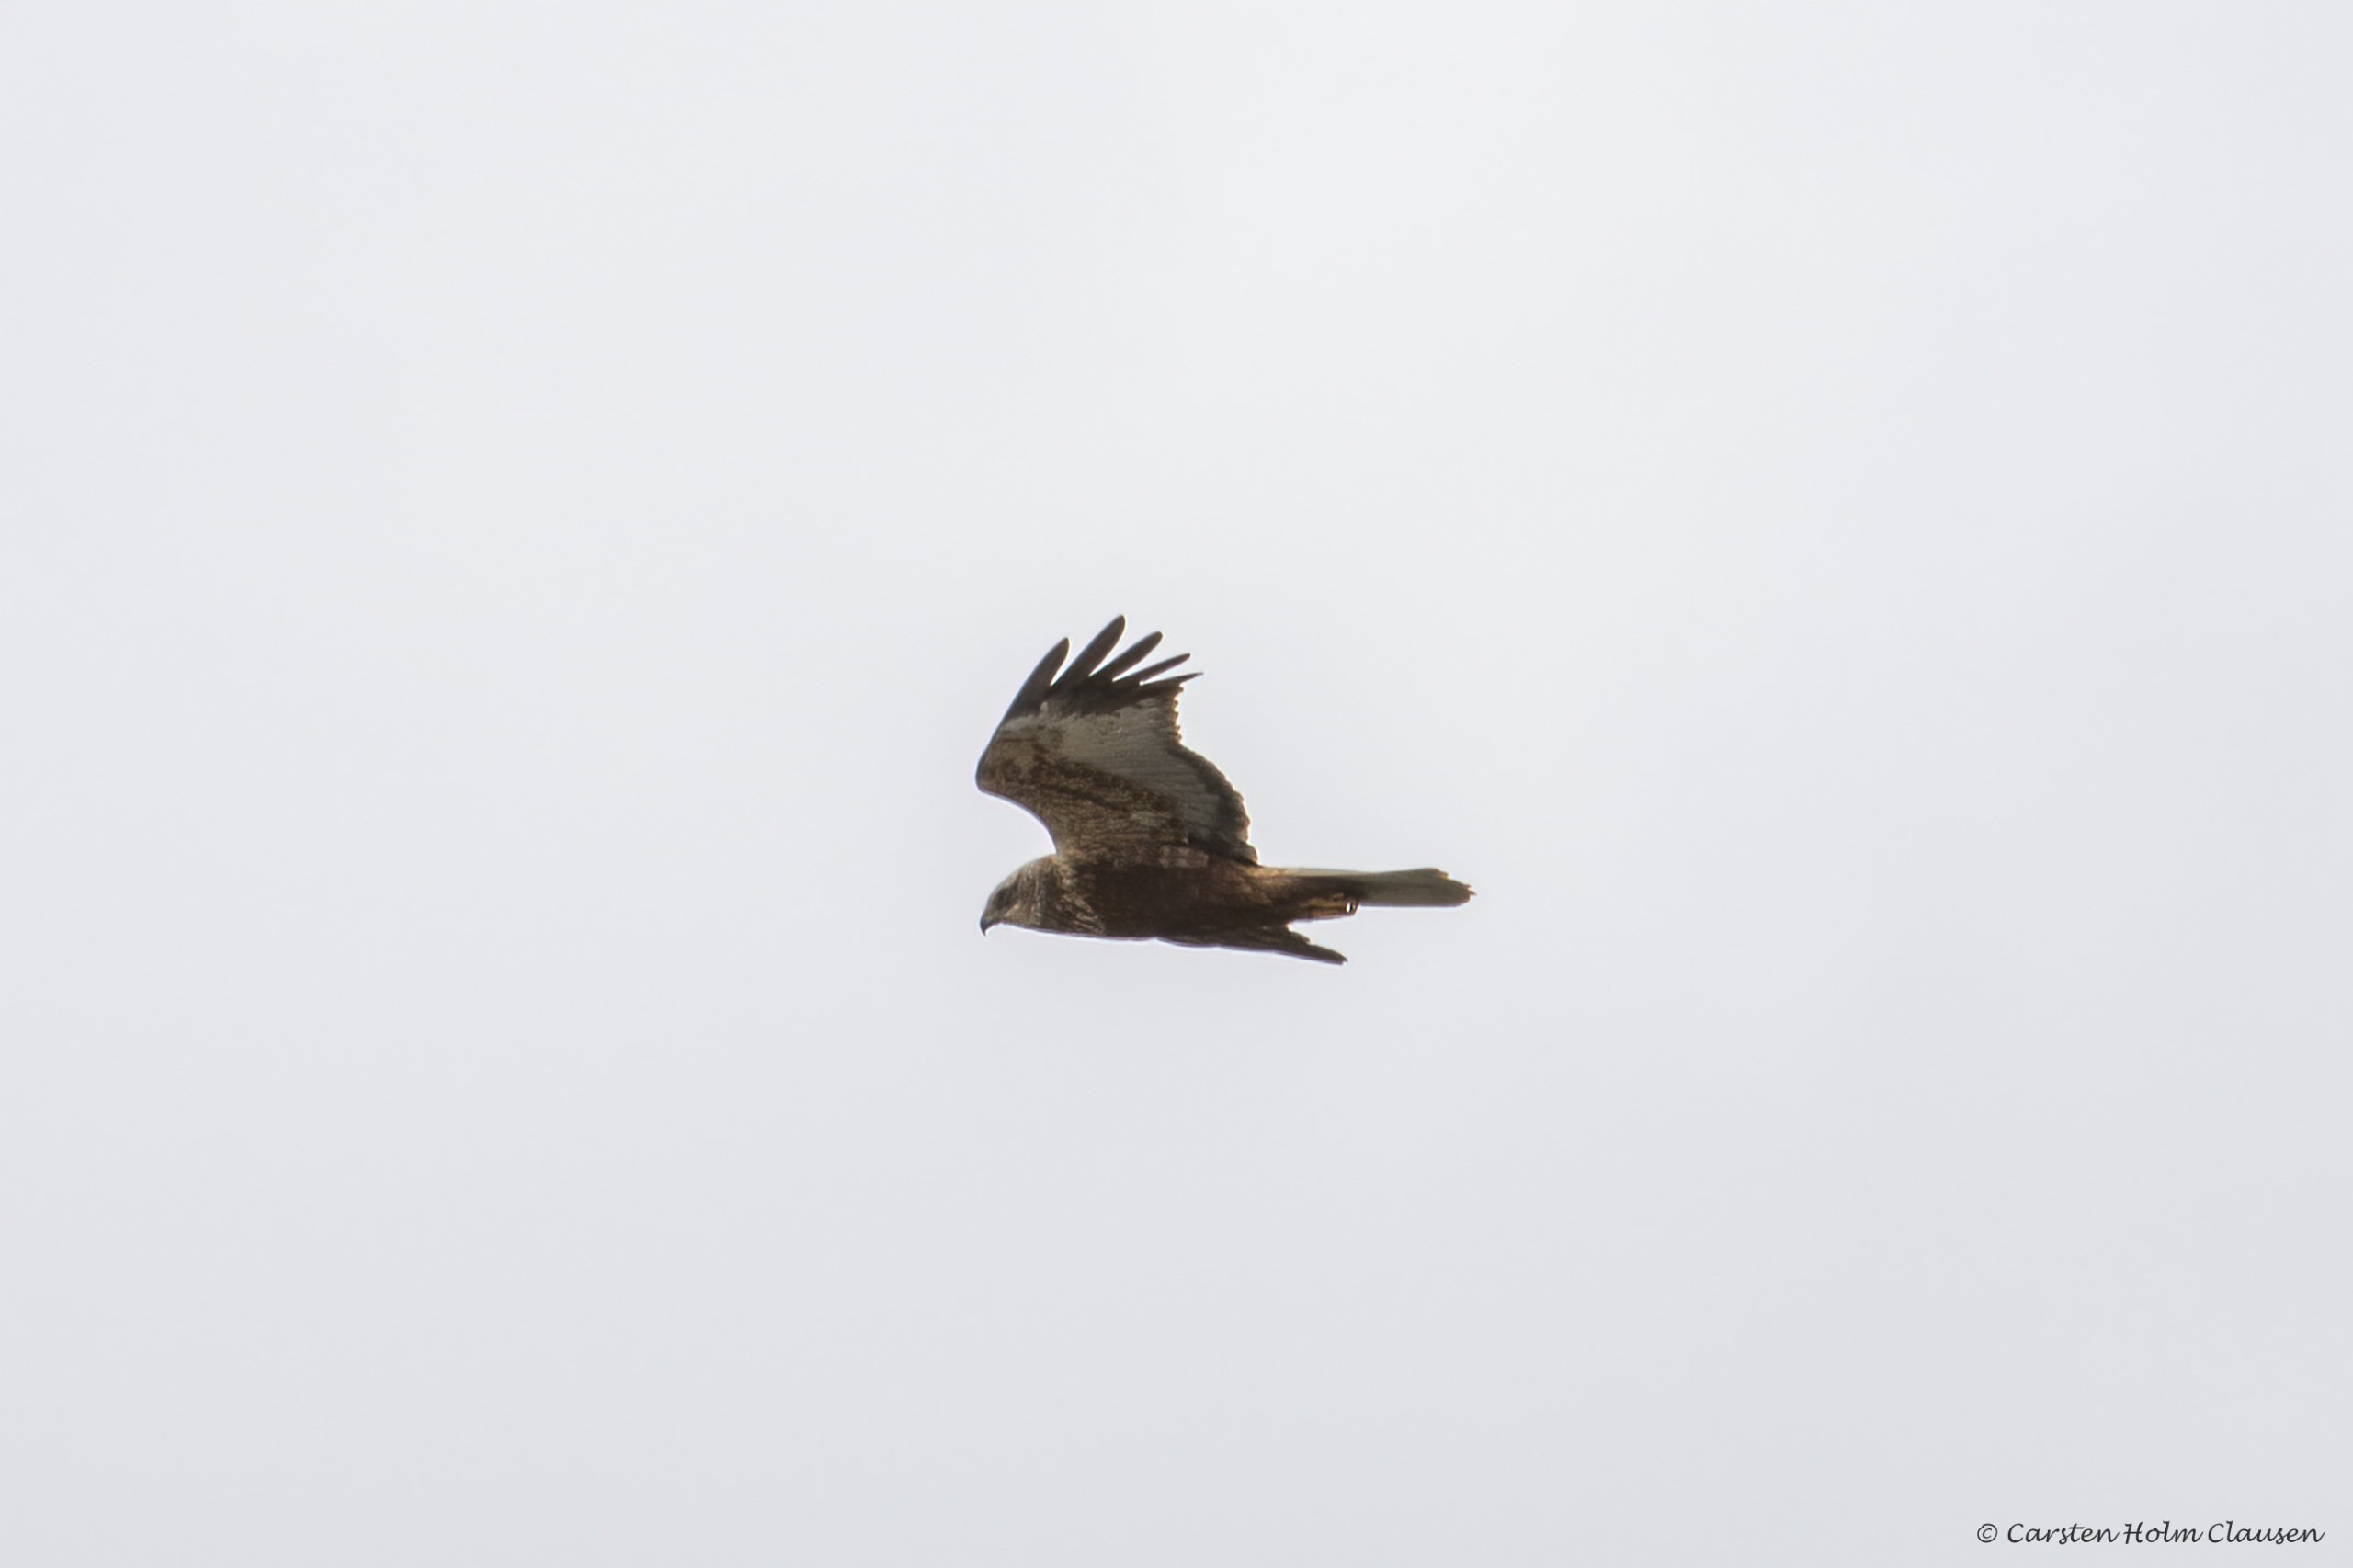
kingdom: Animalia
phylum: Chordata
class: Aves
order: Accipitriformes
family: Accipitridae
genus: Circus
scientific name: Circus aeruginosus
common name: Rørhøg
